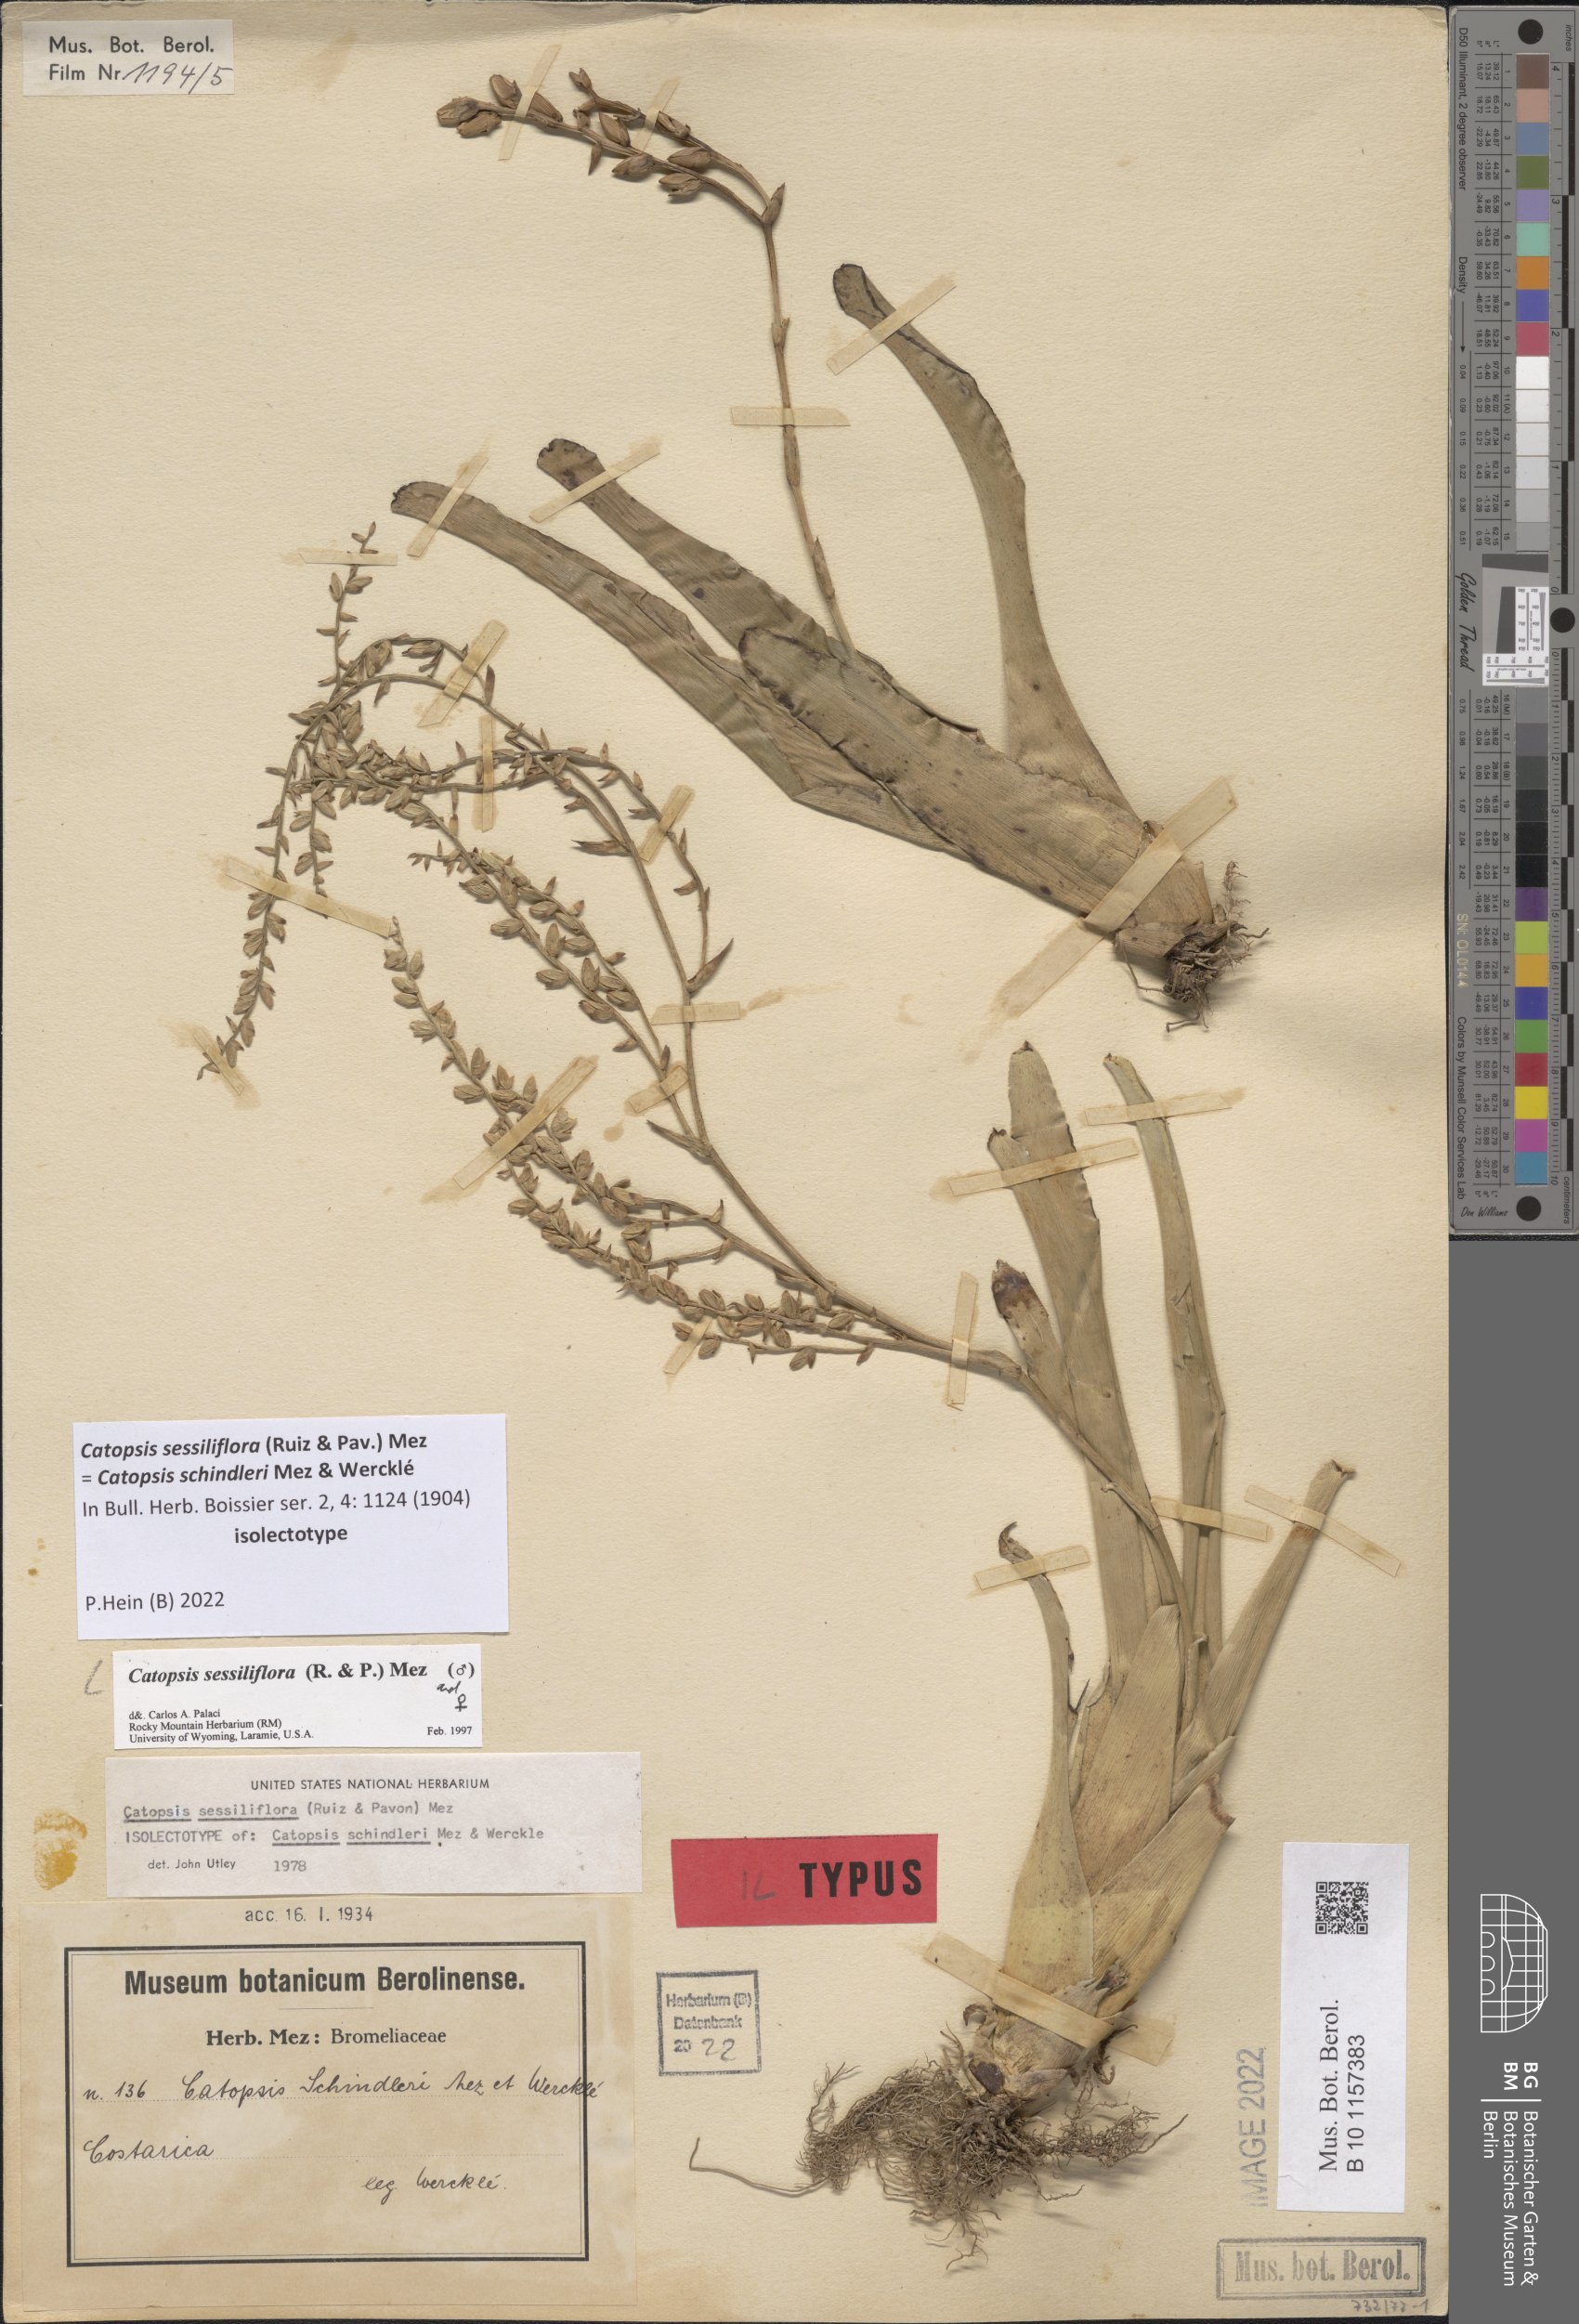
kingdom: Plantae
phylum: Tracheophyta
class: Liliopsida
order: Poales
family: Bromeliaceae
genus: Catopsis
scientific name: Catopsis sessiliflora
